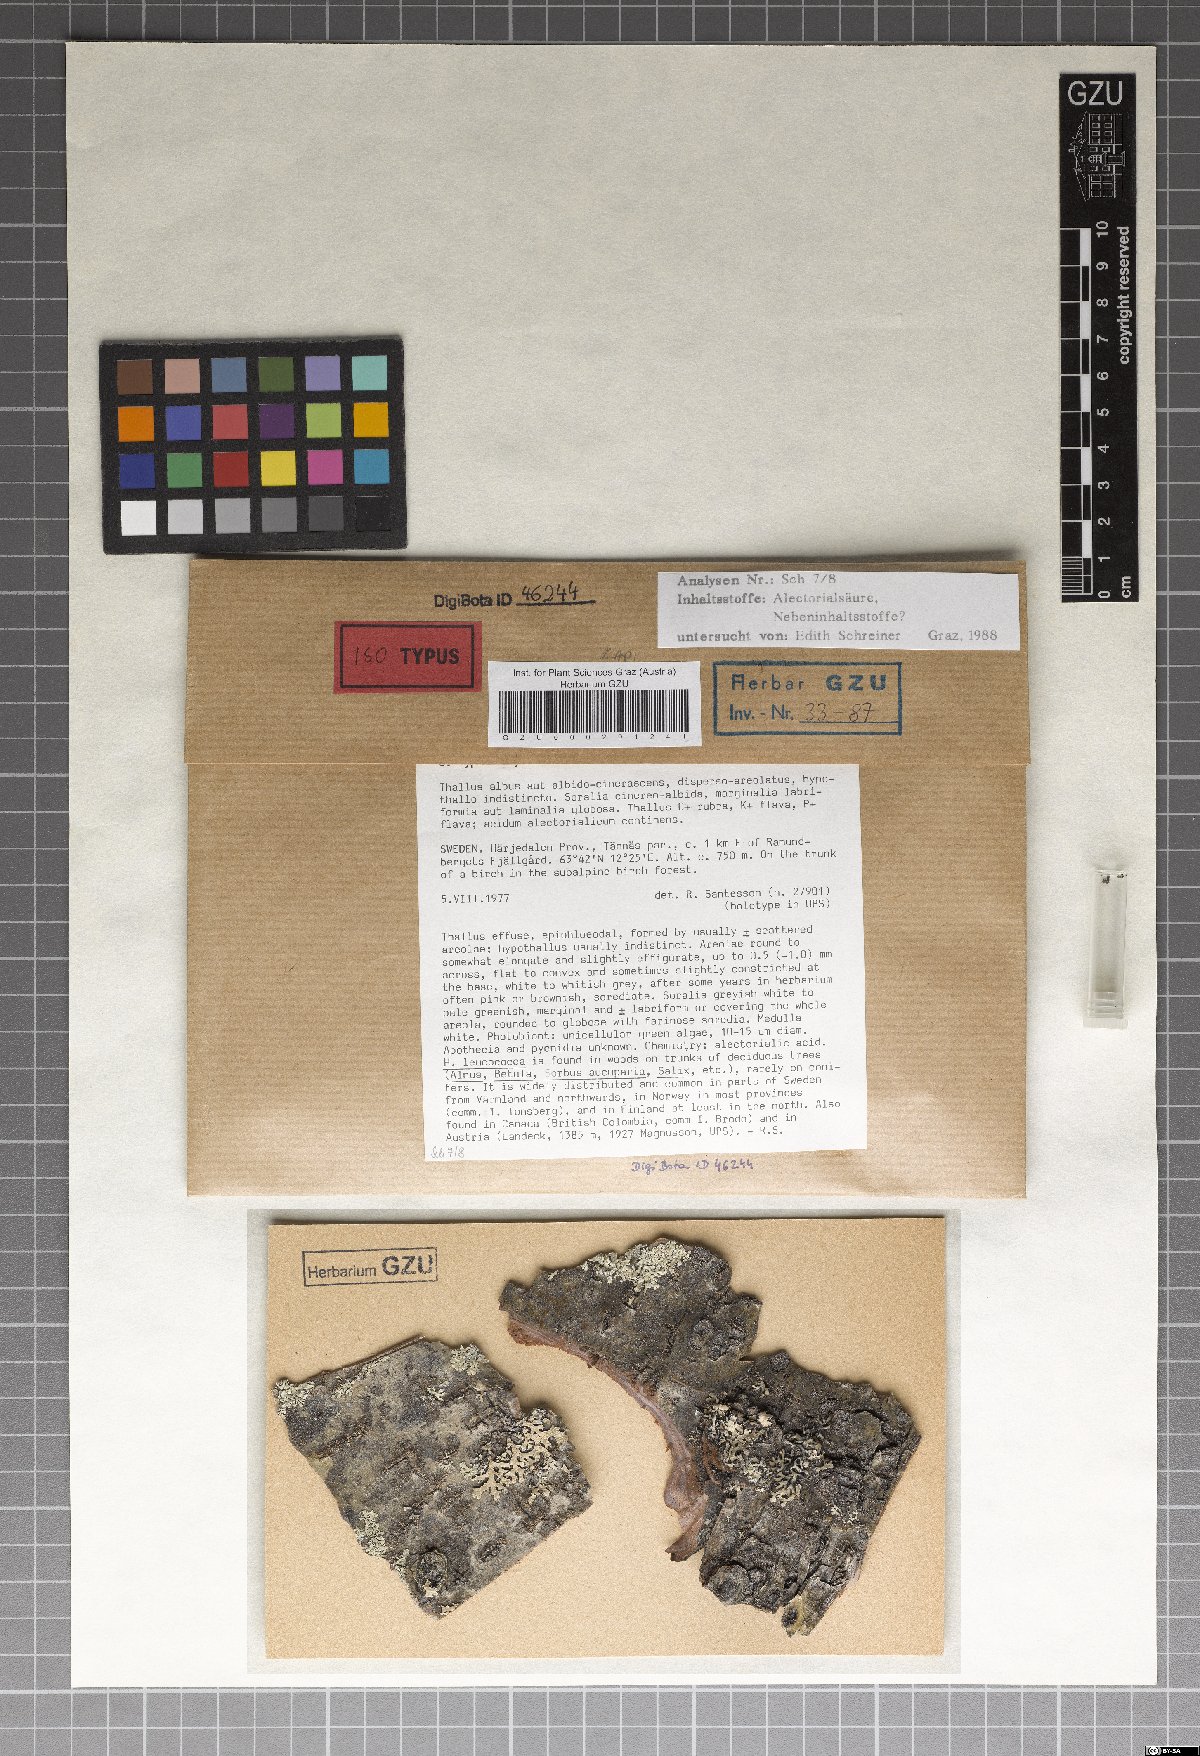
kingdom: Fungi
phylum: Ascomycota
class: Lecanoromycetes
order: Rhizocarpales
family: Sporastatiaceae
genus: Toensbergia
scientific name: Toensbergia leucococca
